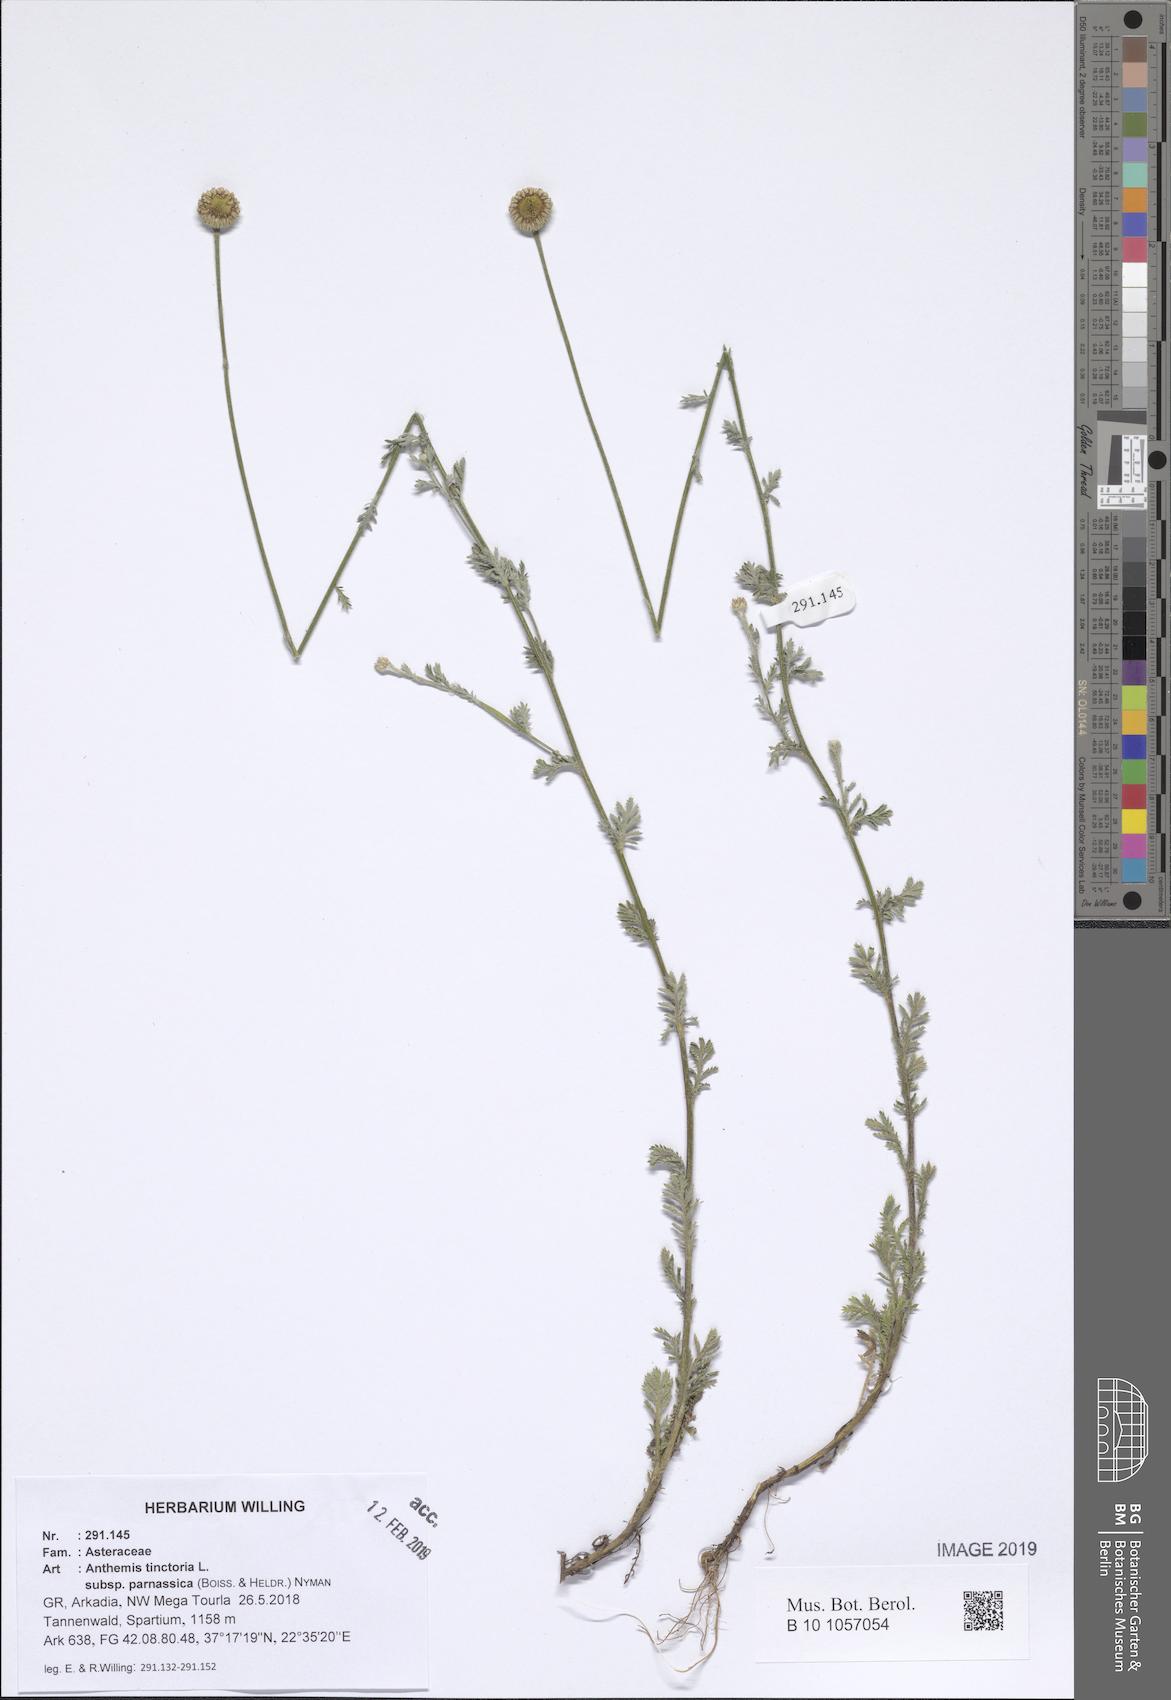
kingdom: Plantae
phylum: Tracheophyta
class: Magnoliopsida
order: Asterales
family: Asteraceae
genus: Cota
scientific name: Cota tinctoria
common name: Golden chamomile
